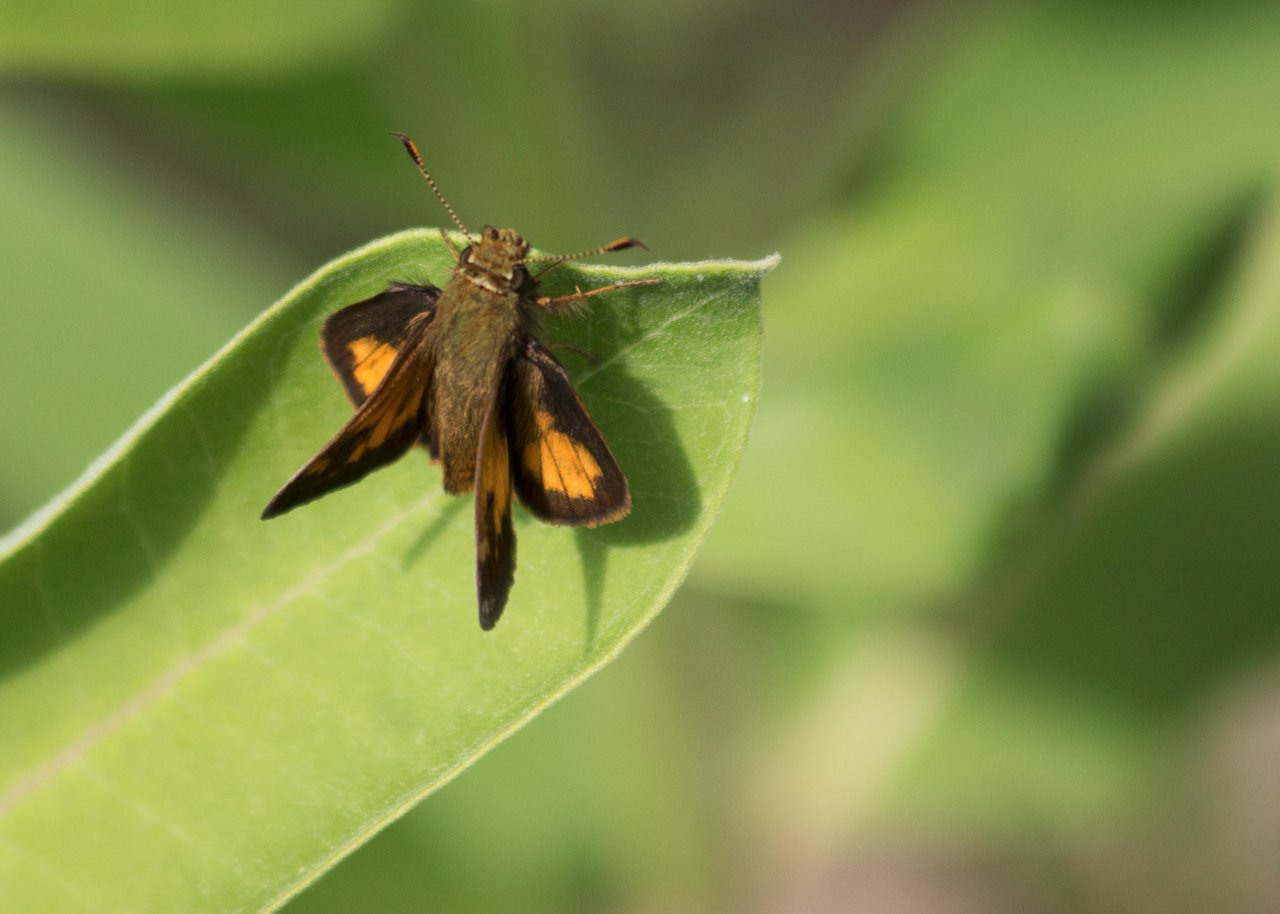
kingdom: Animalia
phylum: Arthropoda
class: Insecta
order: Lepidoptera
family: Hesperiidae
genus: Lon
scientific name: Lon hobomok
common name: Hobomok Skipper
